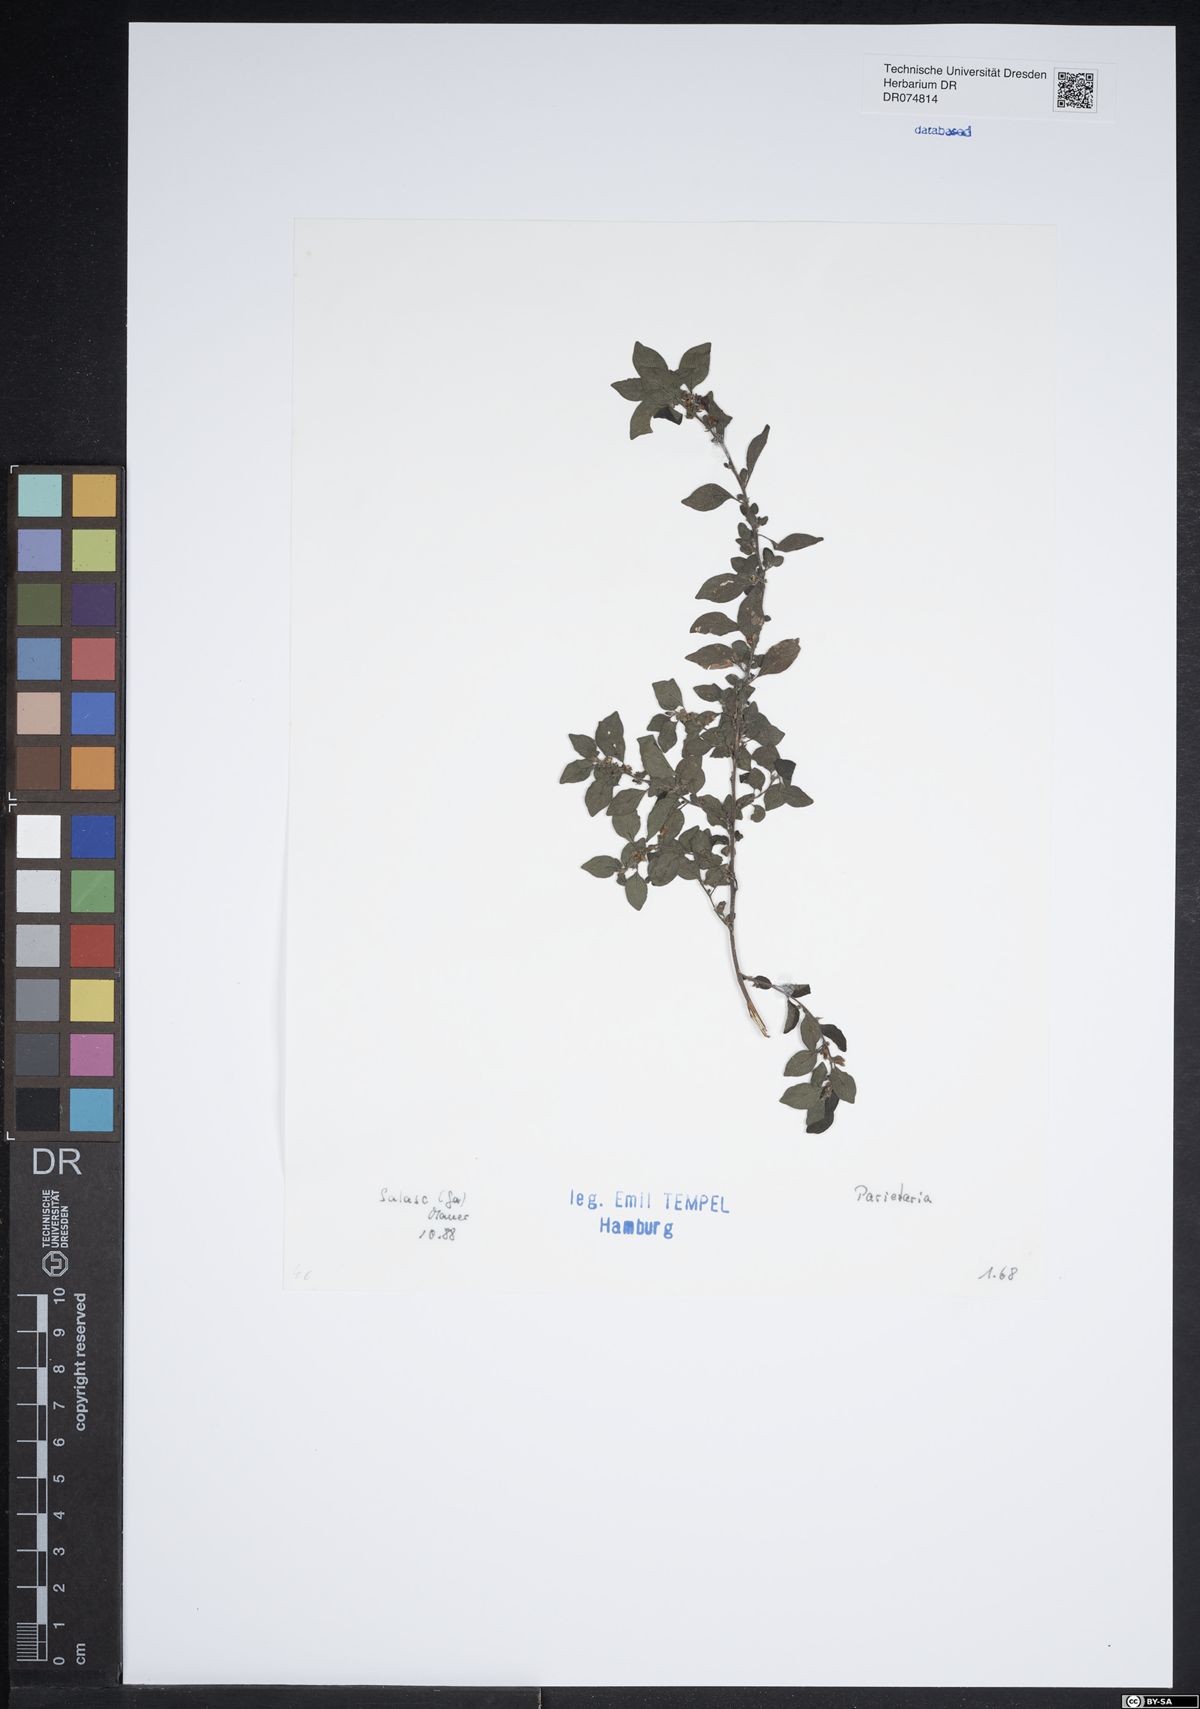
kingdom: Plantae
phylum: Tracheophyta
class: Magnoliopsida
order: Rosales
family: Urticaceae
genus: Parietaria
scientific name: Parietaria
